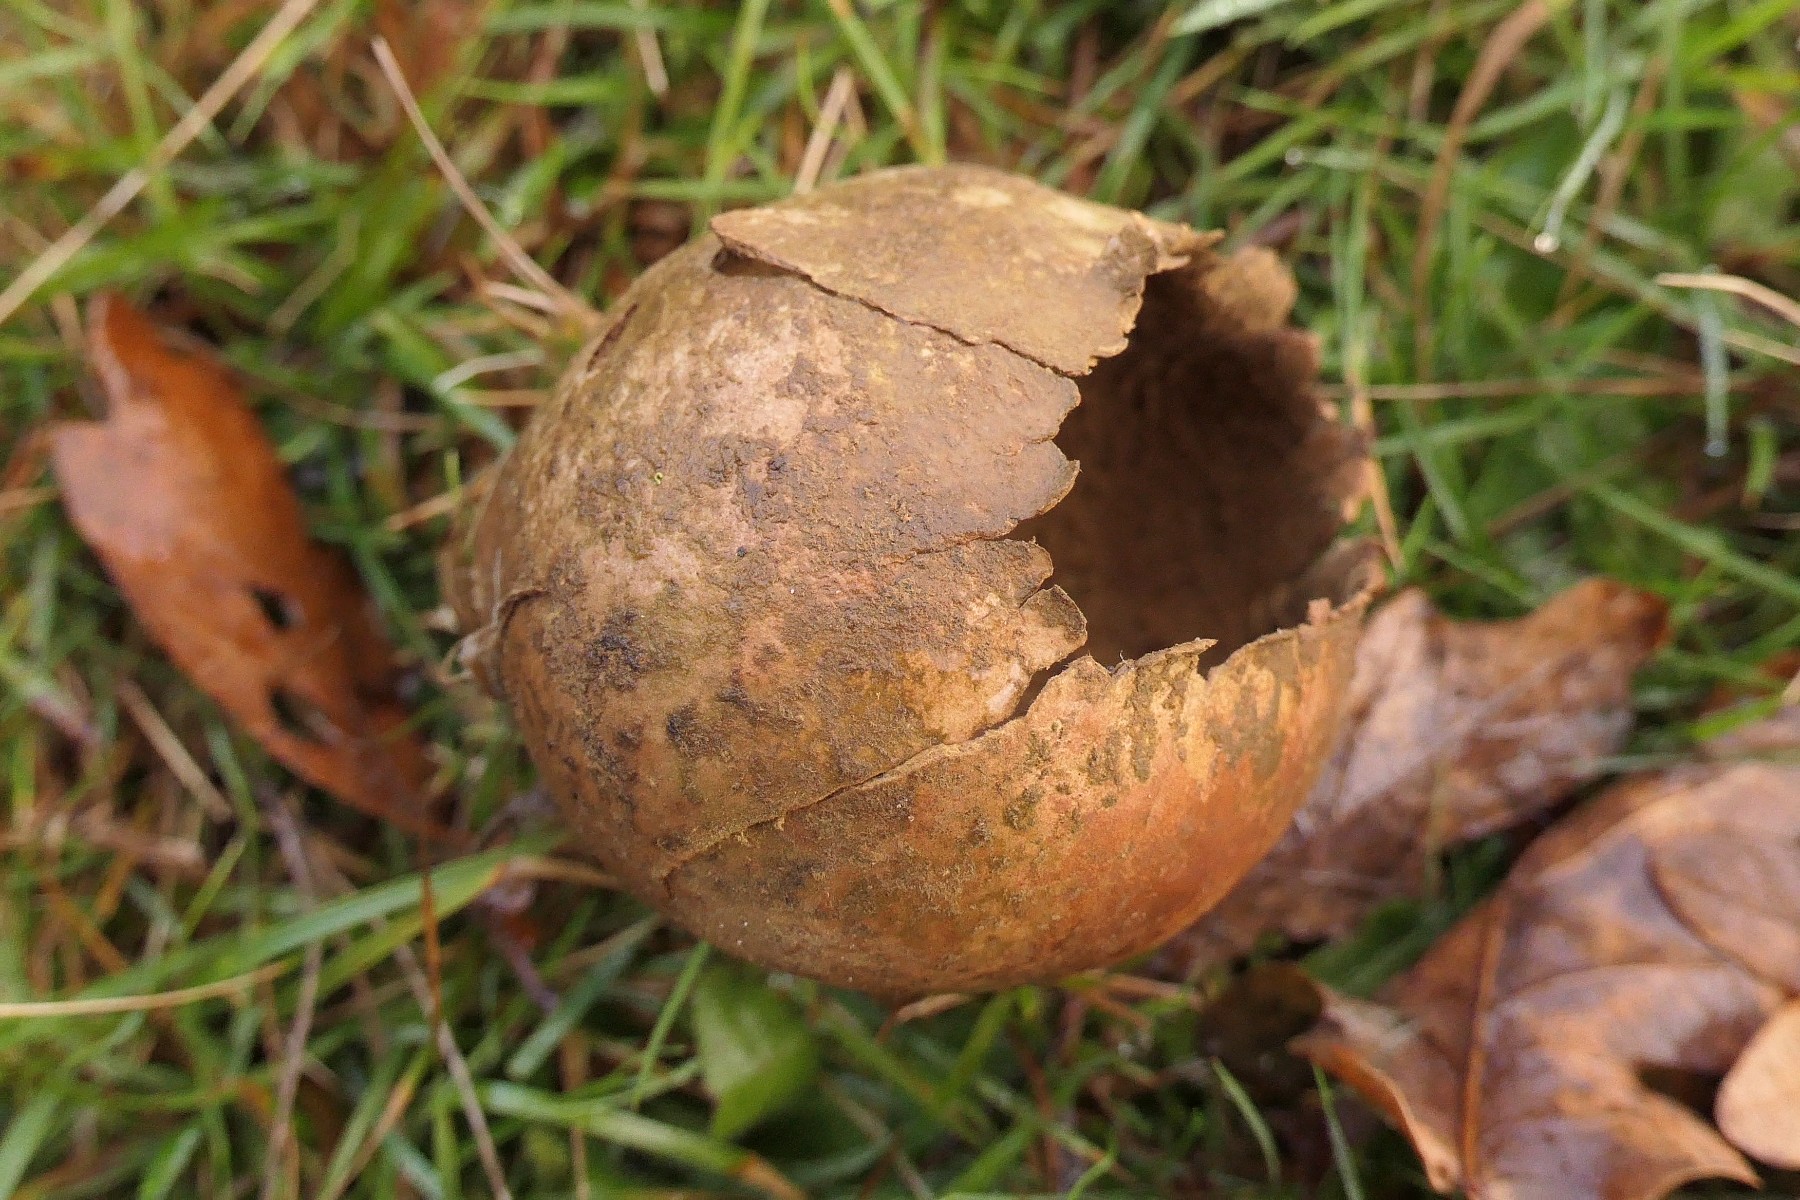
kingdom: Fungi
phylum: Basidiomycota
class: Agaricomycetes
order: Agaricales
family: Lycoperdaceae
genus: Bovistella
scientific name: Bovistella utriformis
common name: skællet støvbold
